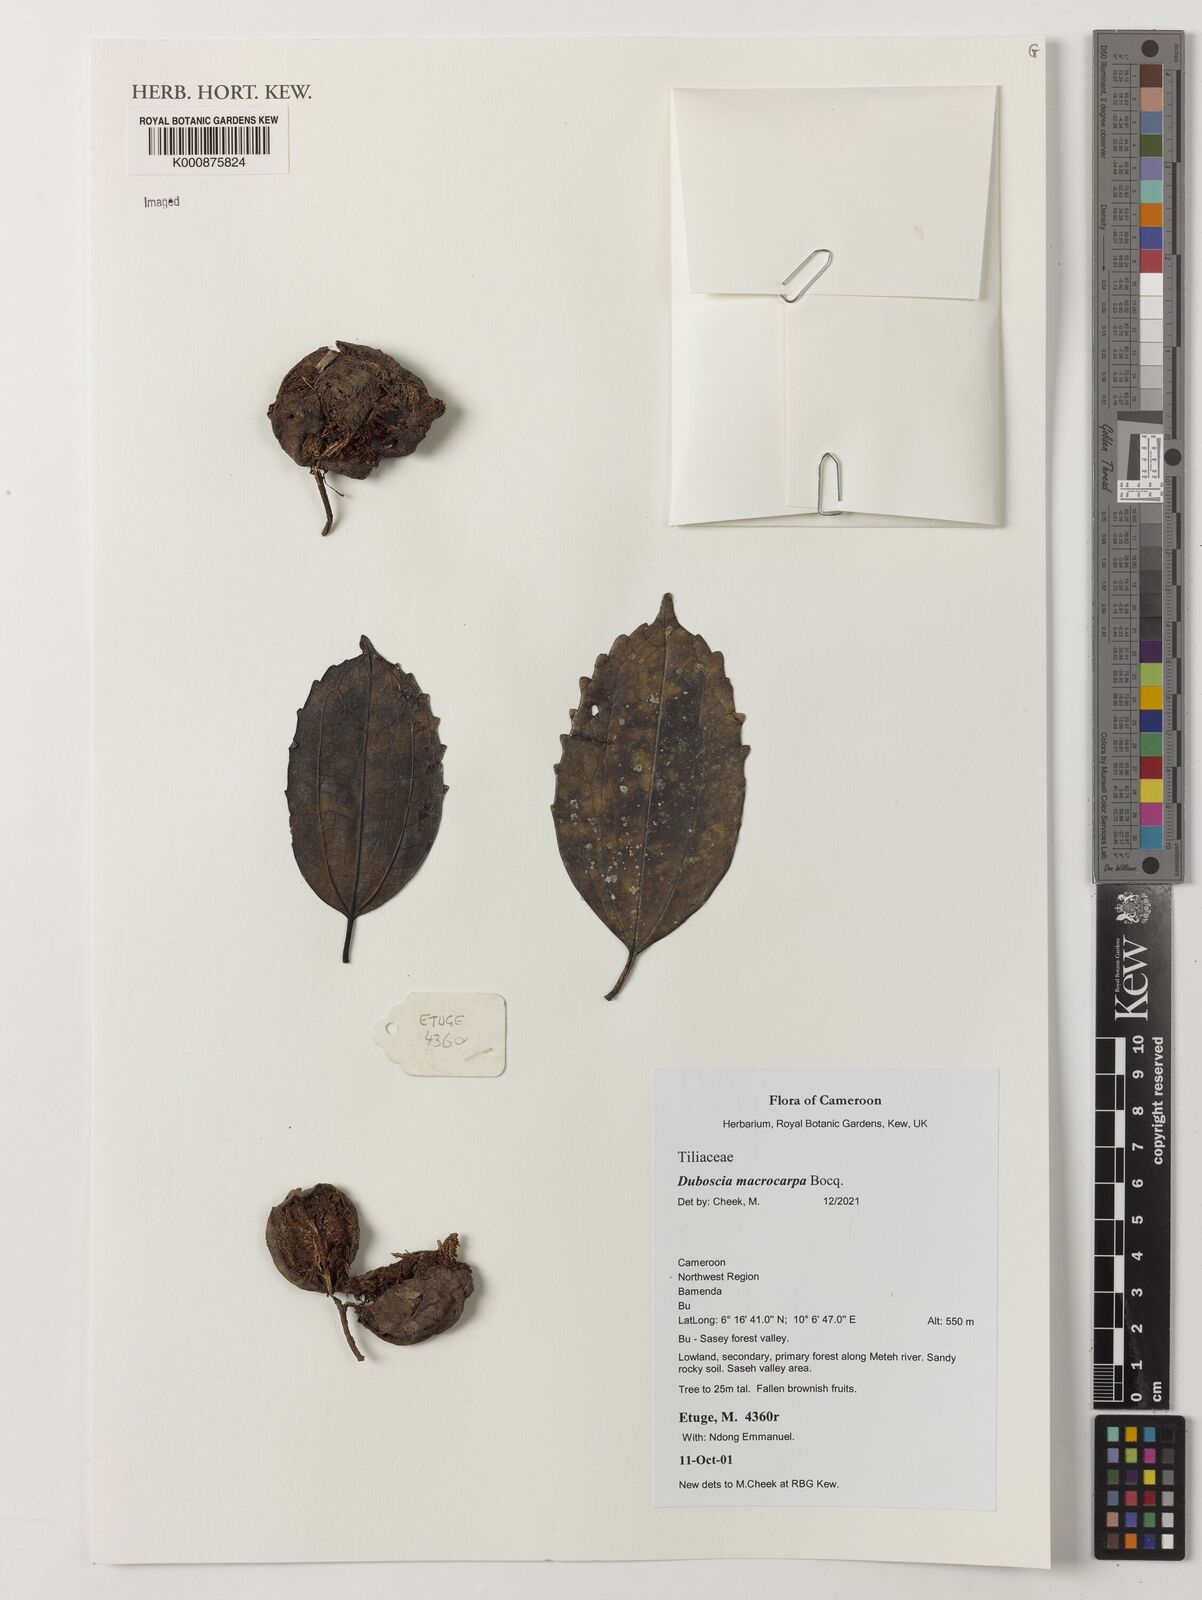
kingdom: Plantae
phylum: Tracheophyta
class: Magnoliopsida
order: Malvales
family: Malvaceae
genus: Duboscia
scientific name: Duboscia macrocarpa
